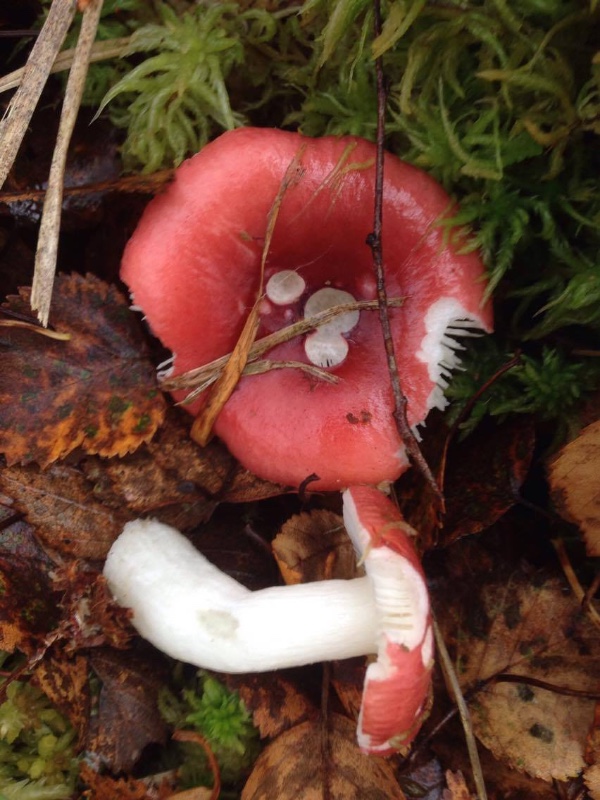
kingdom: Fungi
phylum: Basidiomycota
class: Agaricomycetes
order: Russulales
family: Russulaceae
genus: Russula
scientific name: Russula aquosa
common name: vand-skørhat
